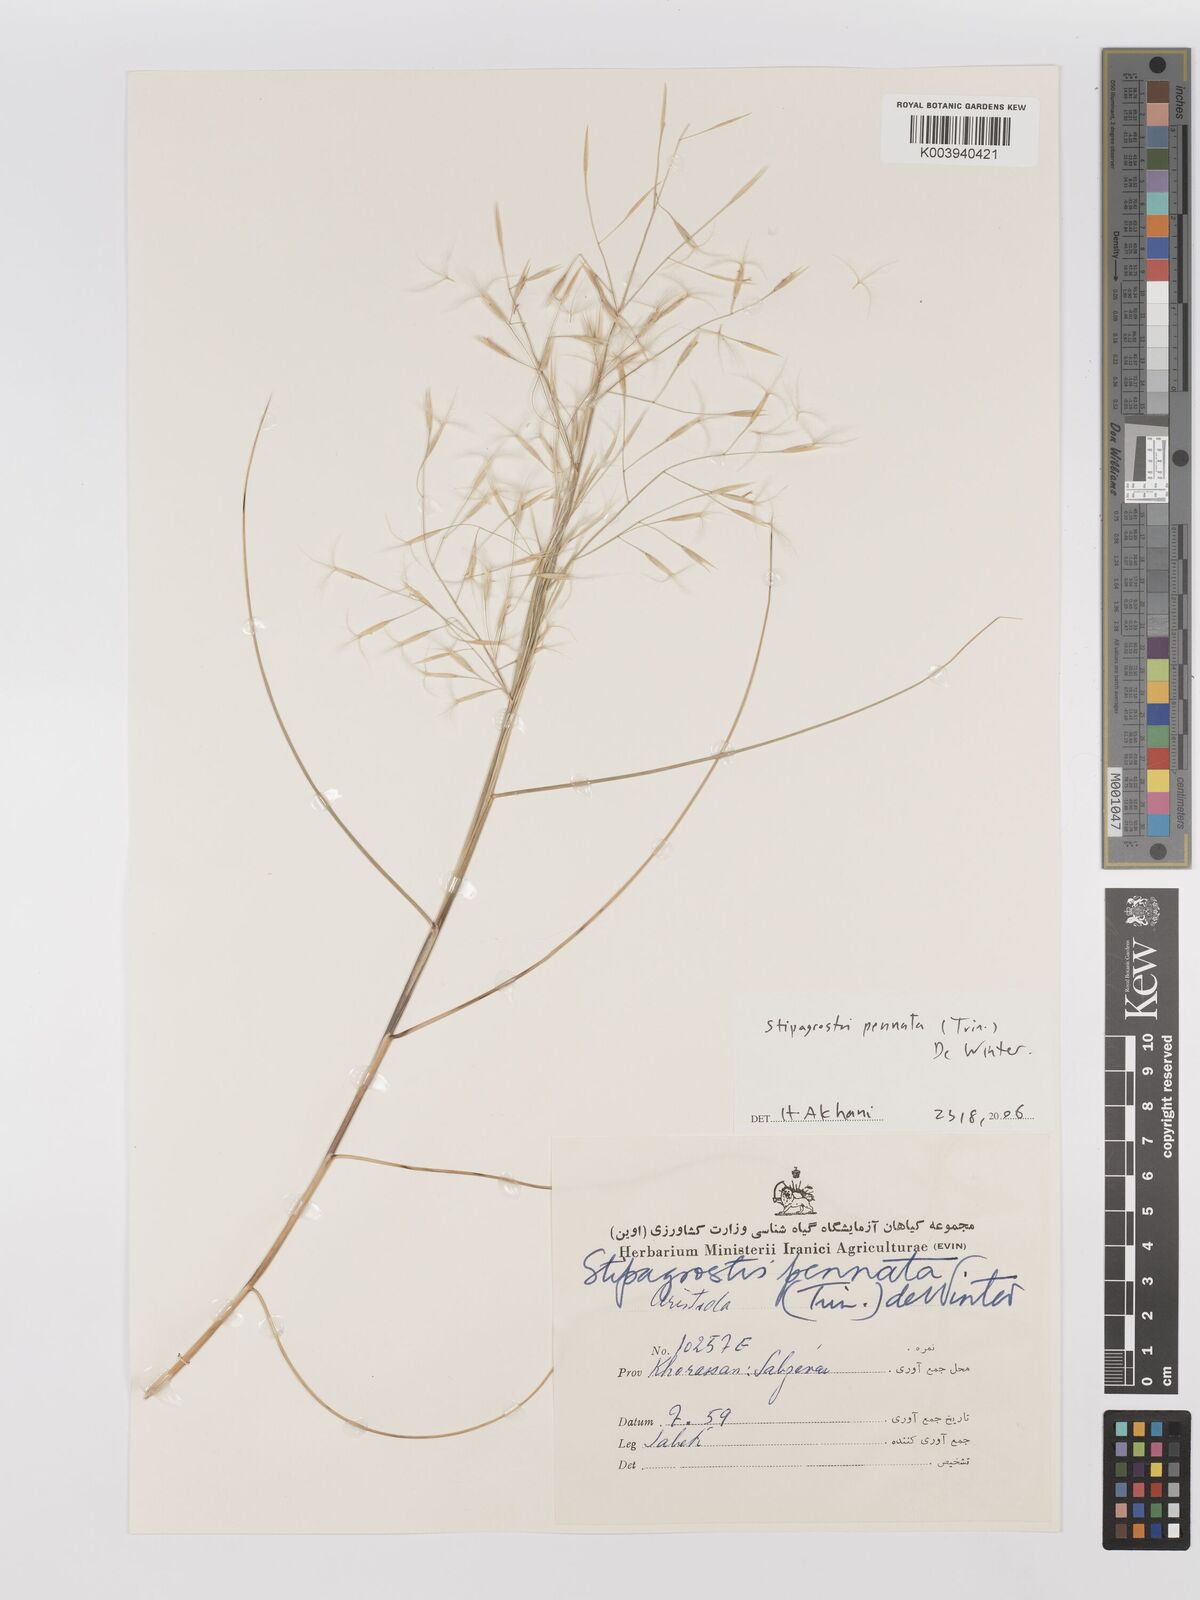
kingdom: Plantae
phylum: Tracheophyta
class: Liliopsida
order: Poales
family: Poaceae
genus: Stipagrostis
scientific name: Stipagrostis pennata
